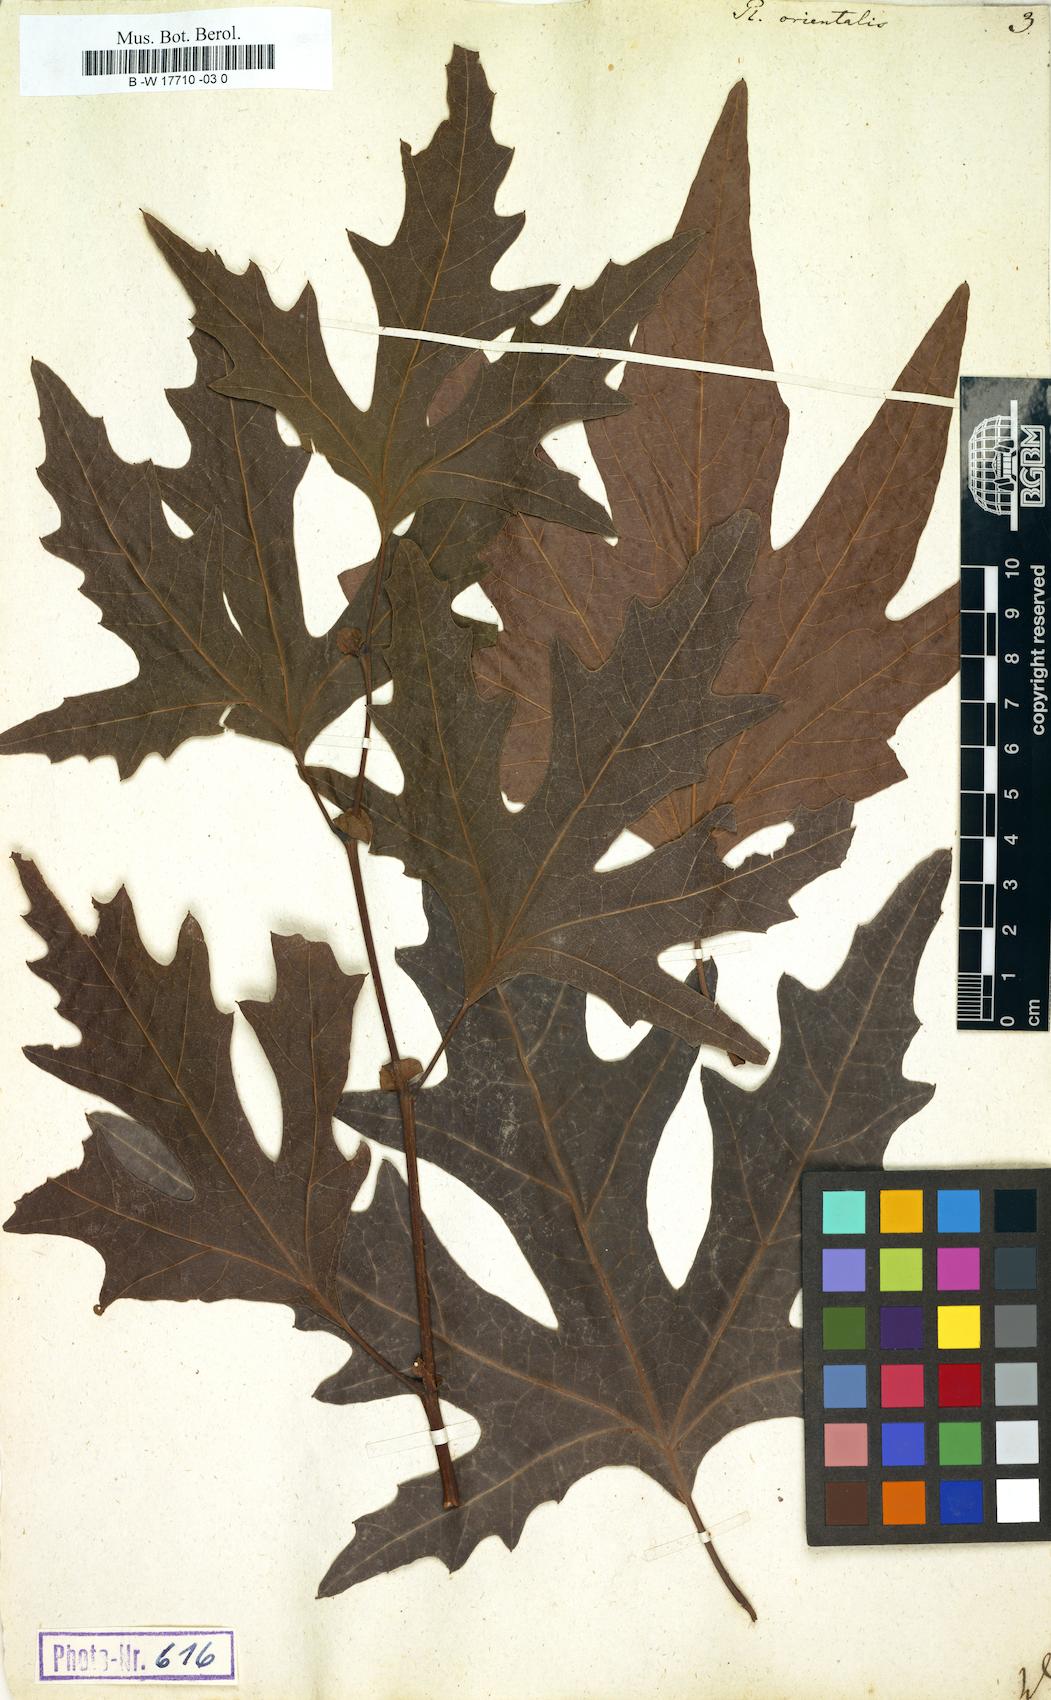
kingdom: Plantae
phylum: Tracheophyta
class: Magnoliopsida
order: Proteales
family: Platanaceae
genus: Platanus
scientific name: Platanus orientalis
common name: Oriental plane
